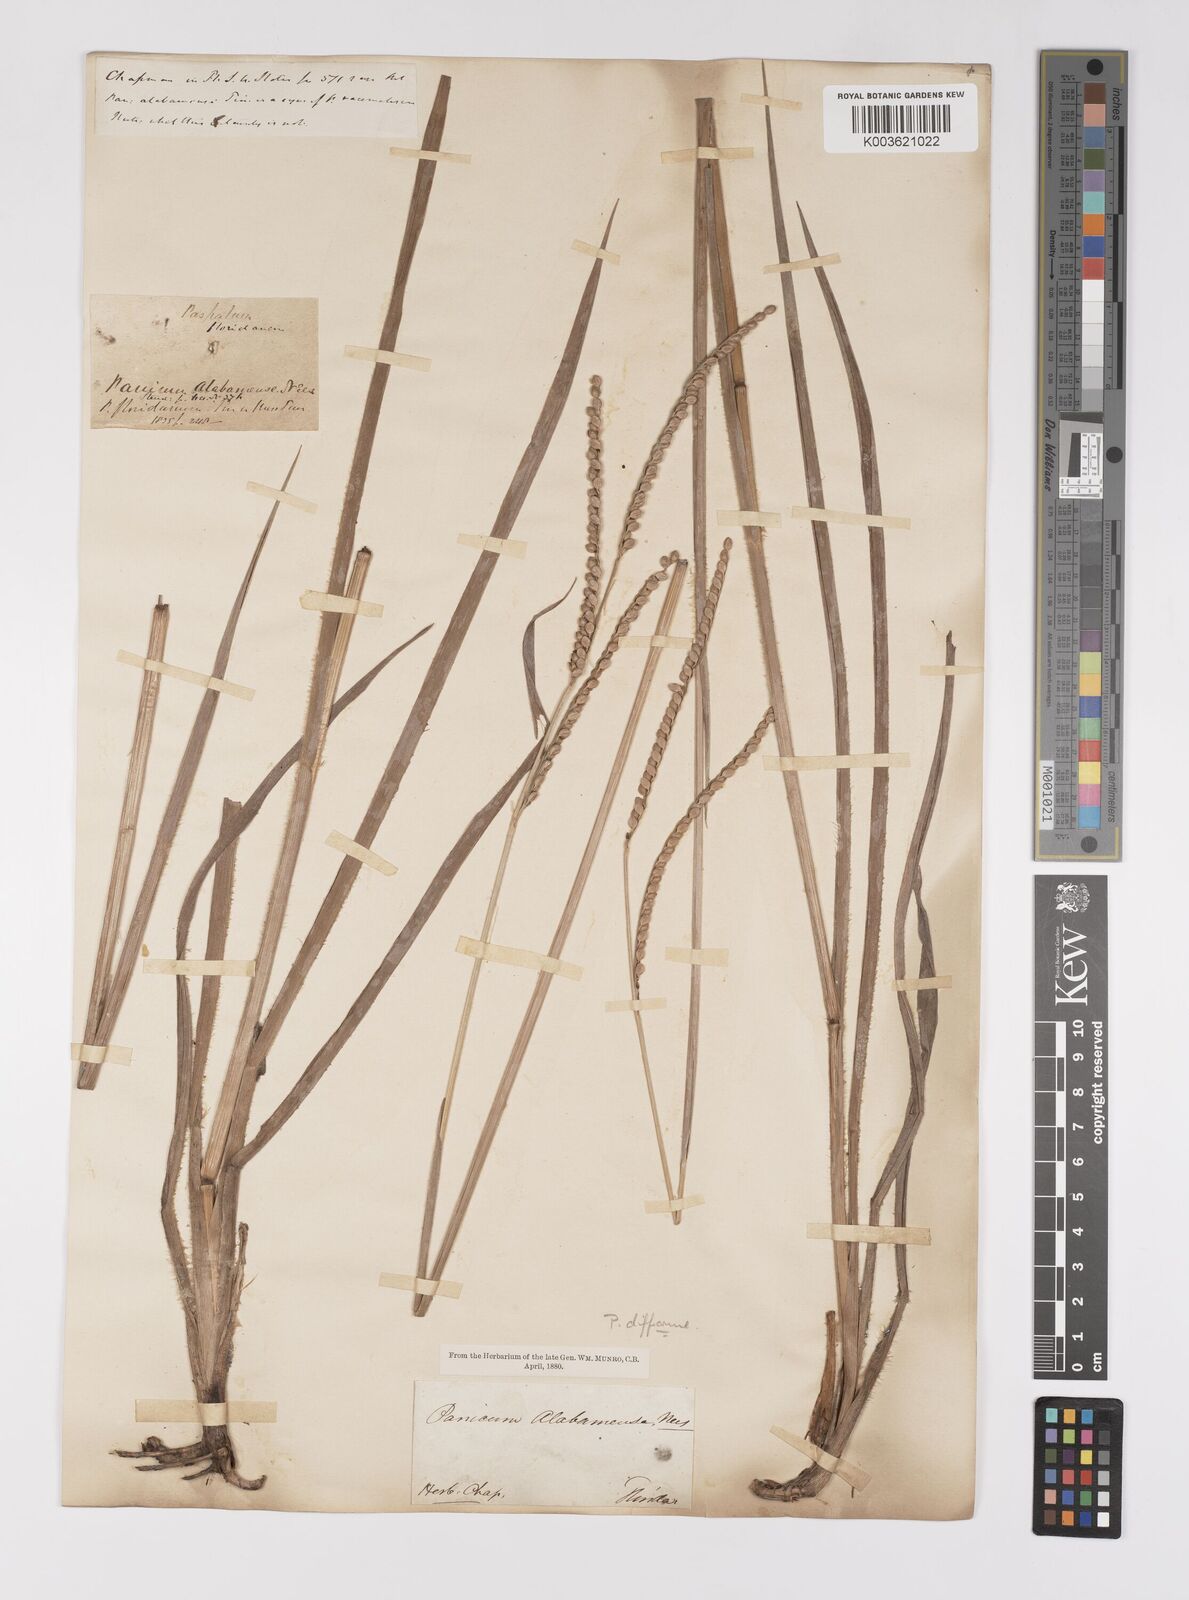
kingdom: Plantae
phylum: Tracheophyta
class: Liliopsida
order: Poales
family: Poaceae
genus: Paspalum
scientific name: Paspalum floridanum
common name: Florida paspalum
